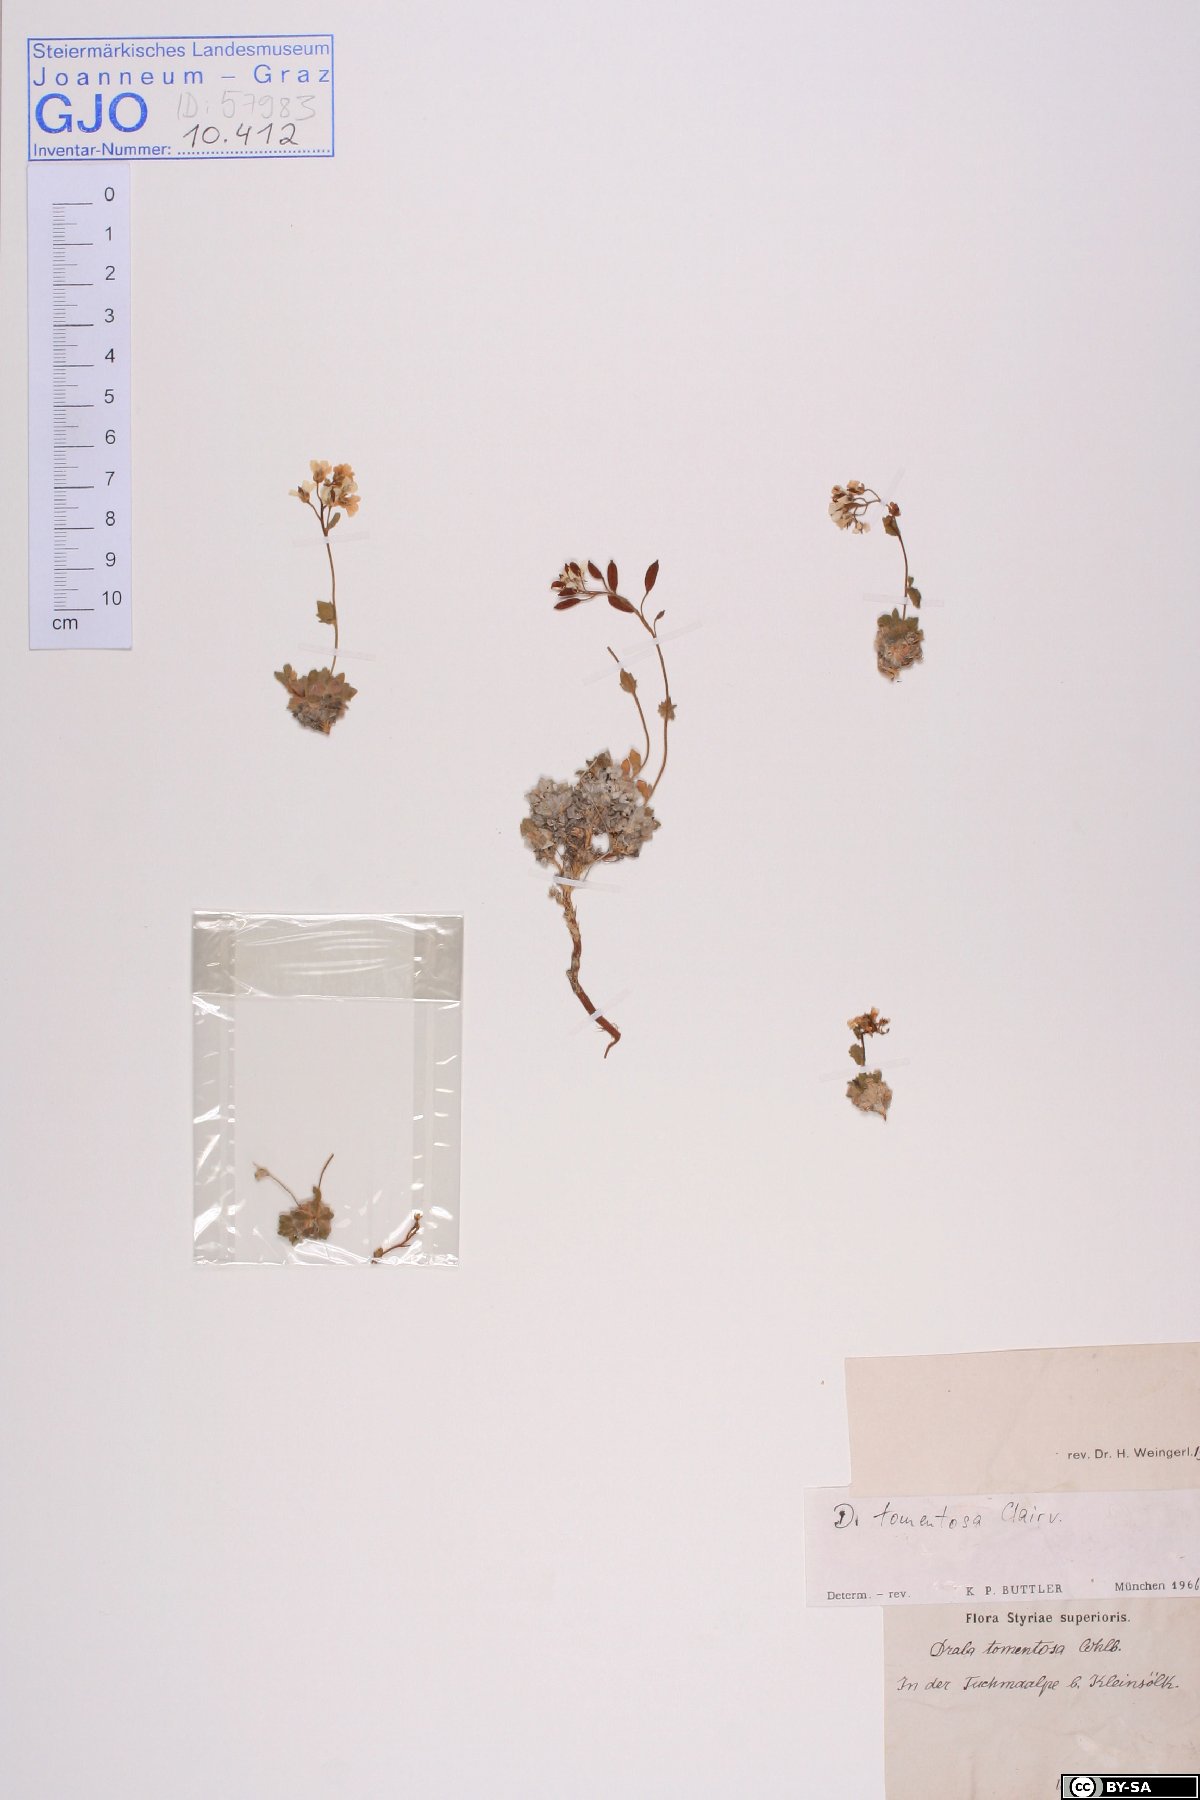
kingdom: Plantae
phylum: Tracheophyta
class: Magnoliopsida
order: Brassicales
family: Brassicaceae
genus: Draba
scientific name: Draba tomentosa
